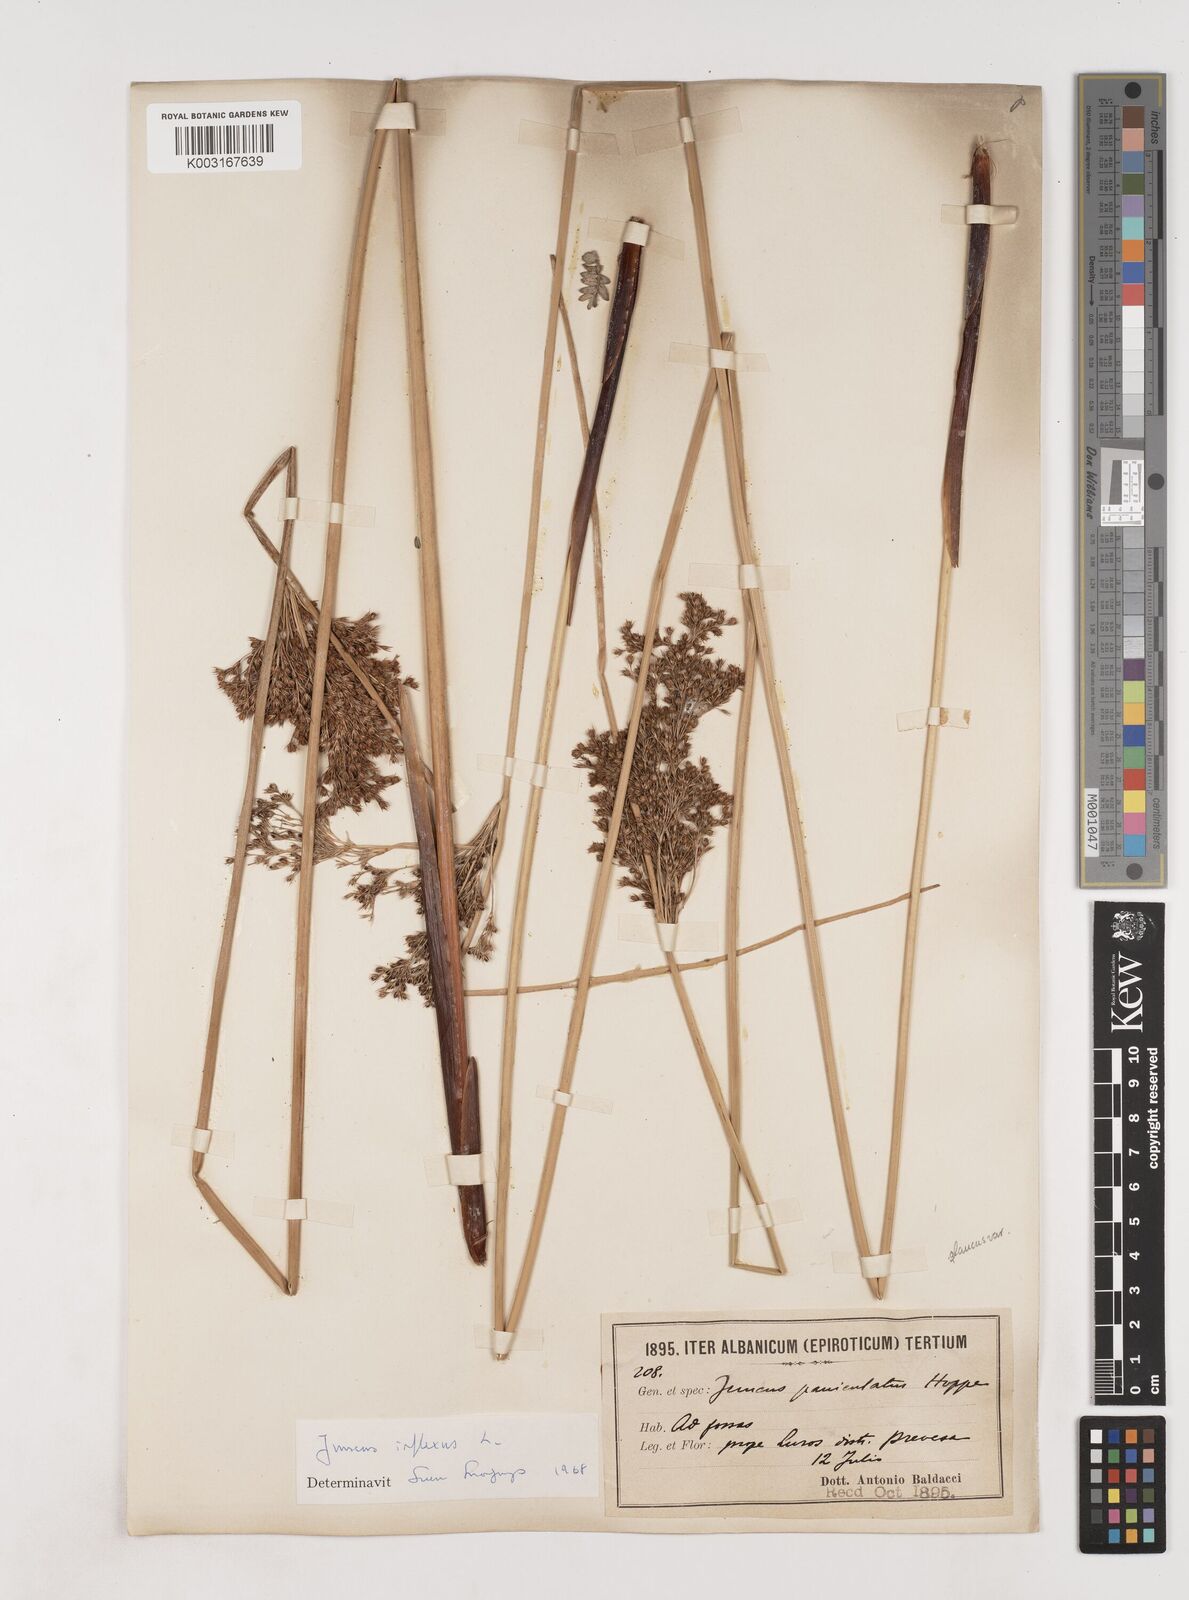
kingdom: Plantae
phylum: Tracheophyta
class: Liliopsida
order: Poales
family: Juncaceae
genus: Juncus
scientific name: Juncus inflexus
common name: Hard rush
